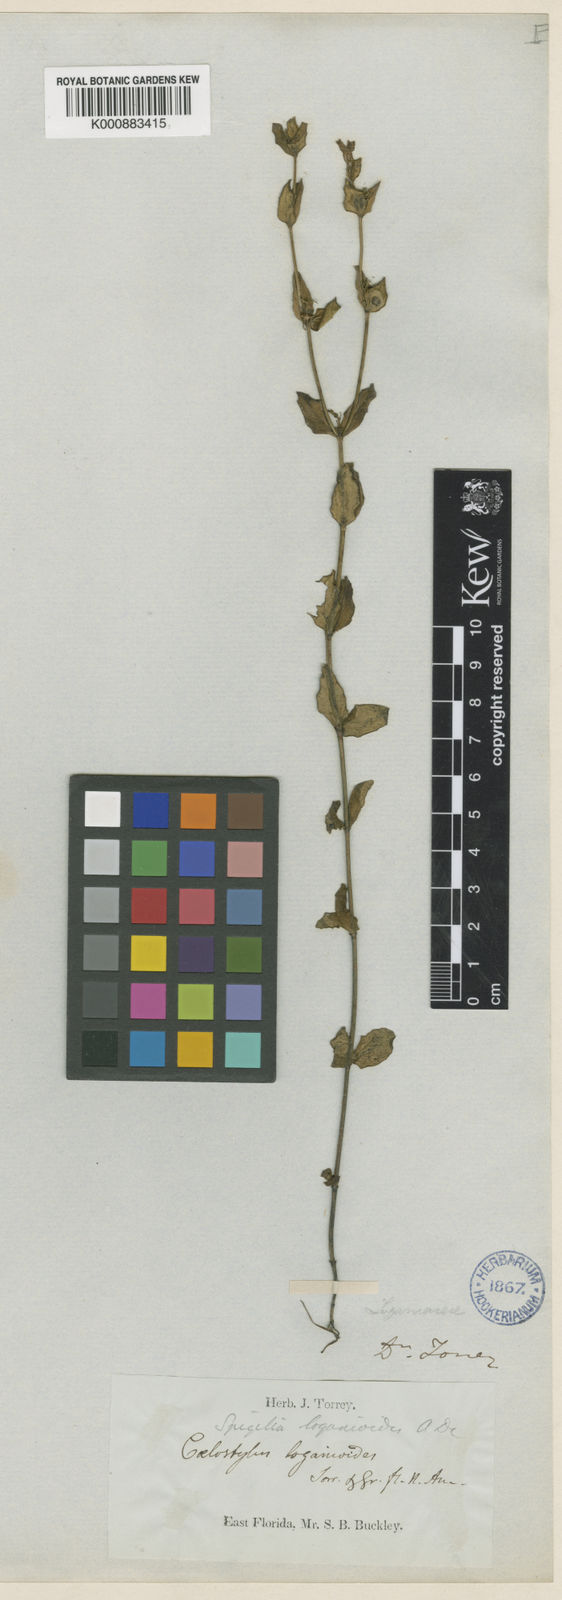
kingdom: Plantae
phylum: Tracheophyta
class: Magnoliopsida
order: Gentianales
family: Loganiaceae
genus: Spigelia
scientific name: Spigelia loganioides
